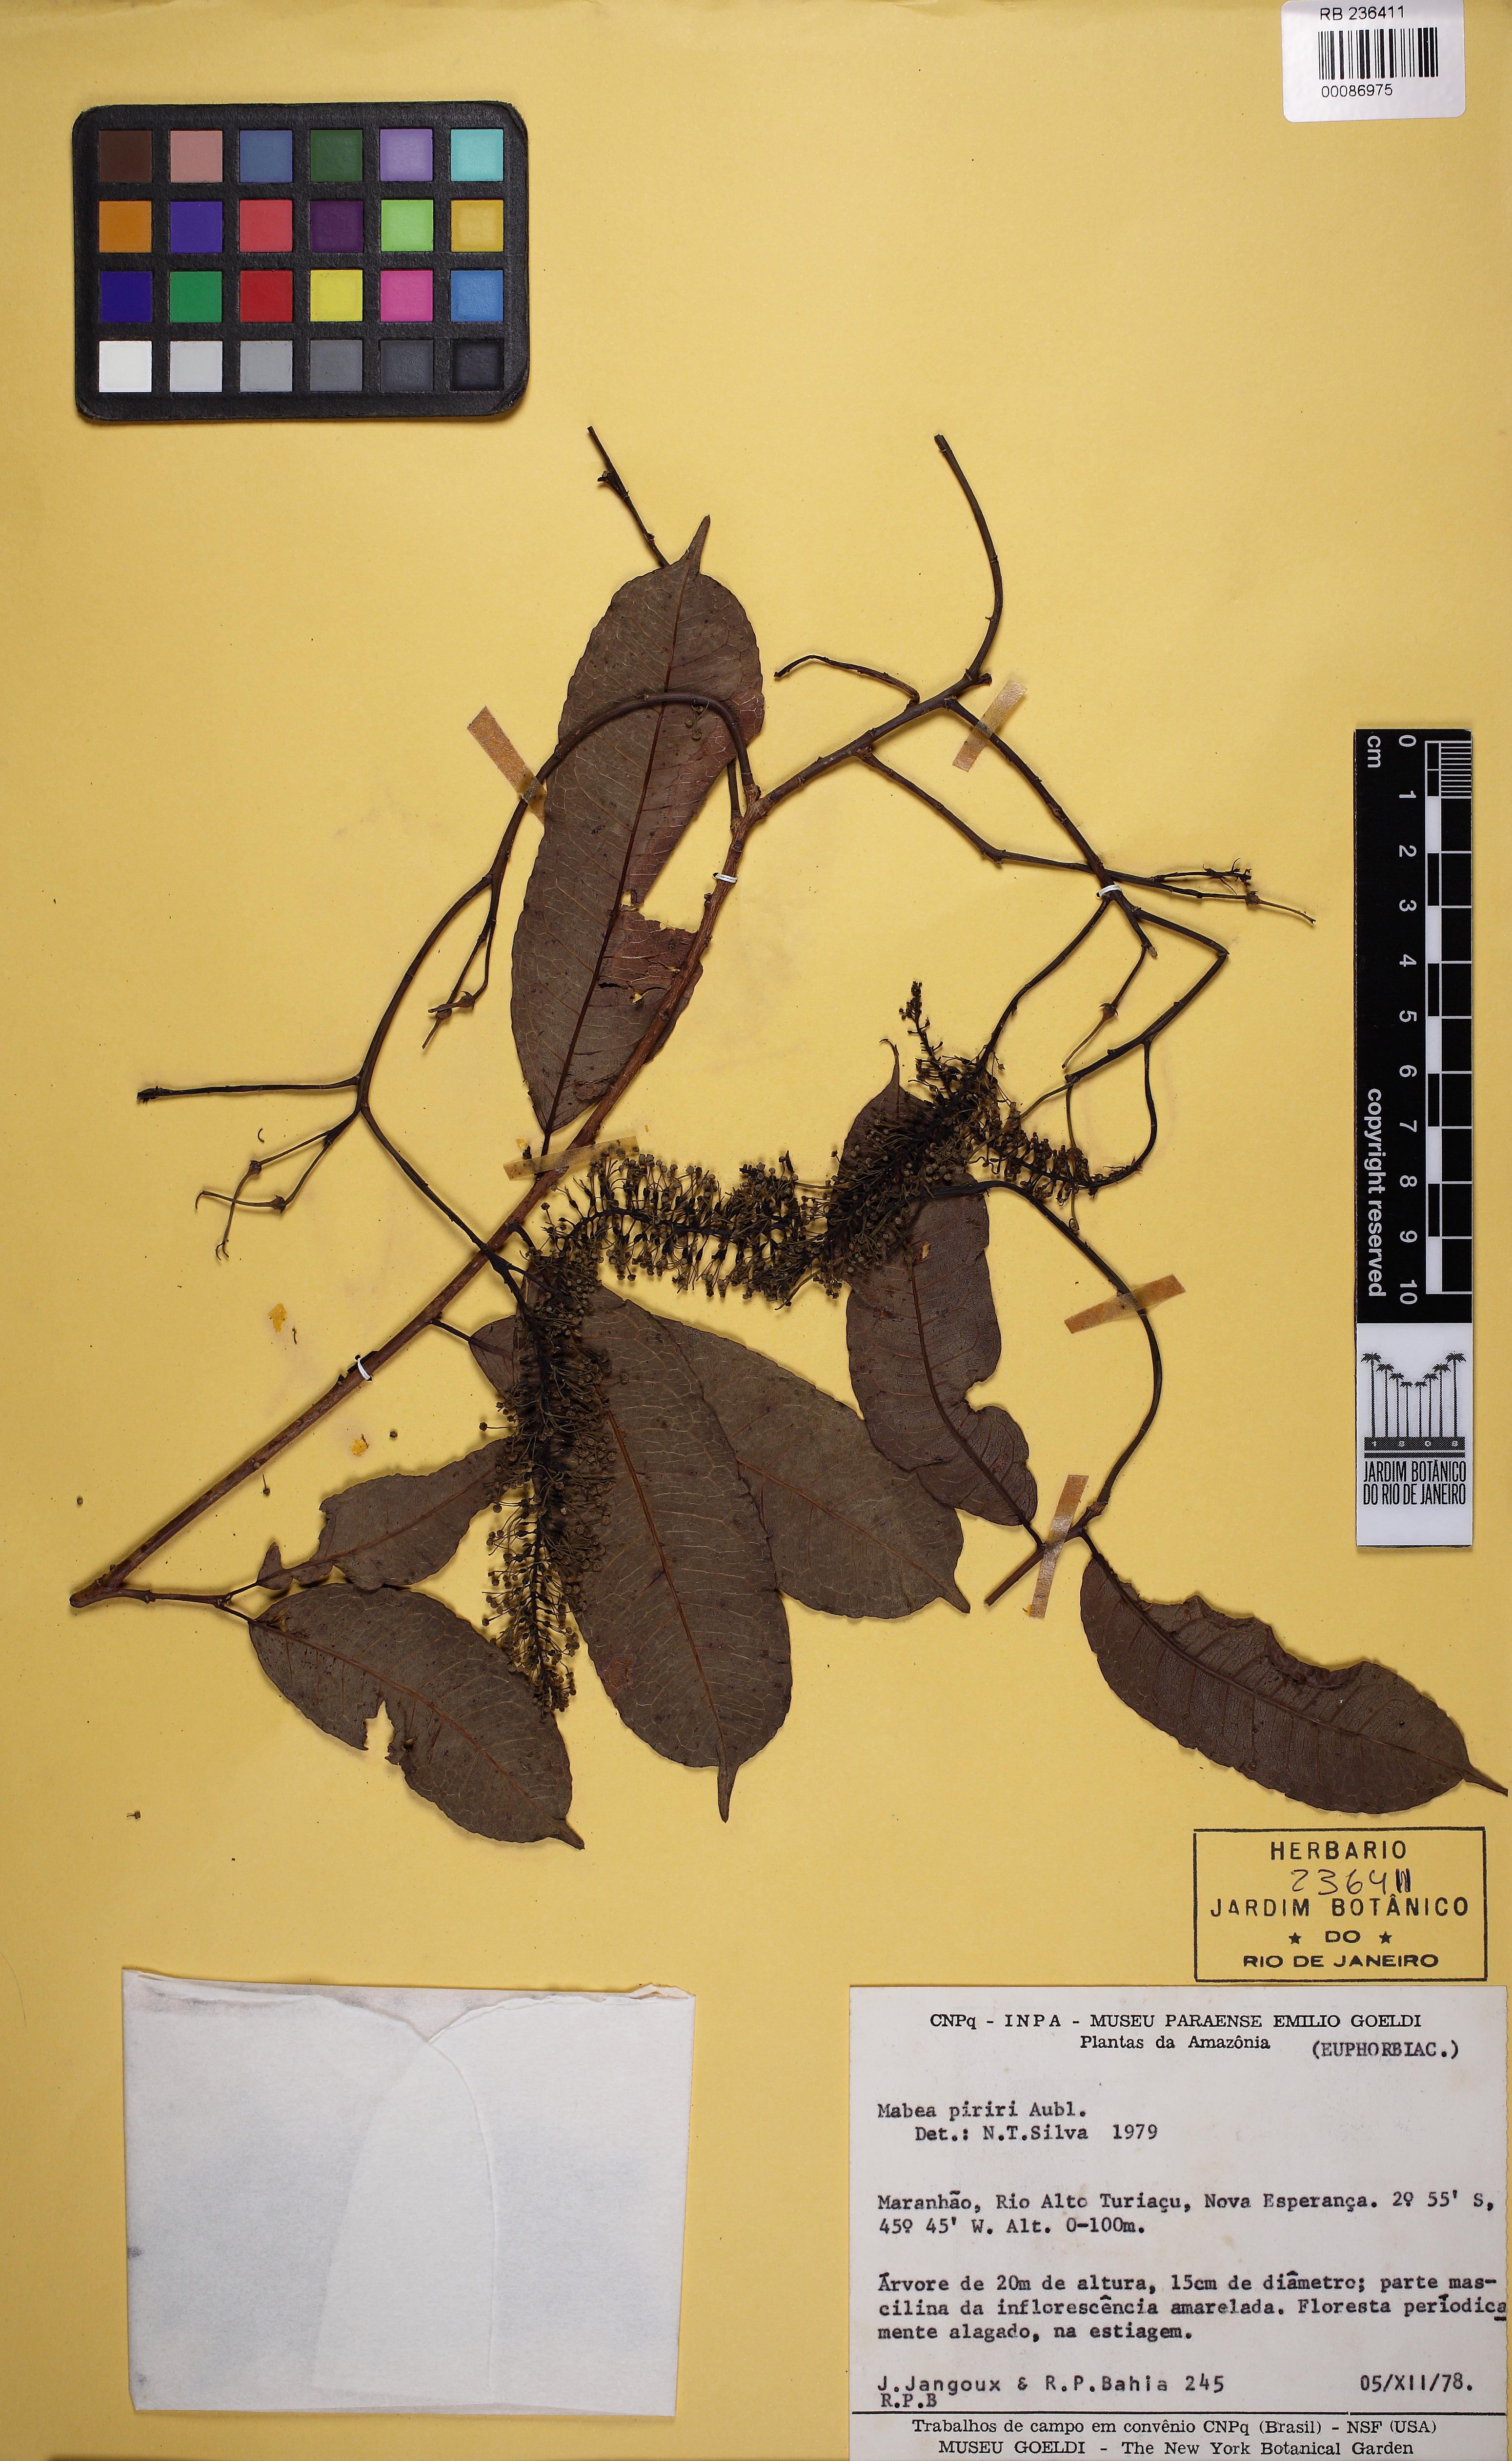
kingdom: Plantae
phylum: Tracheophyta
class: Magnoliopsida
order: Malpighiales
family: Euphorbiaceae
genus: Mabea
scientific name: Mabea piriri
